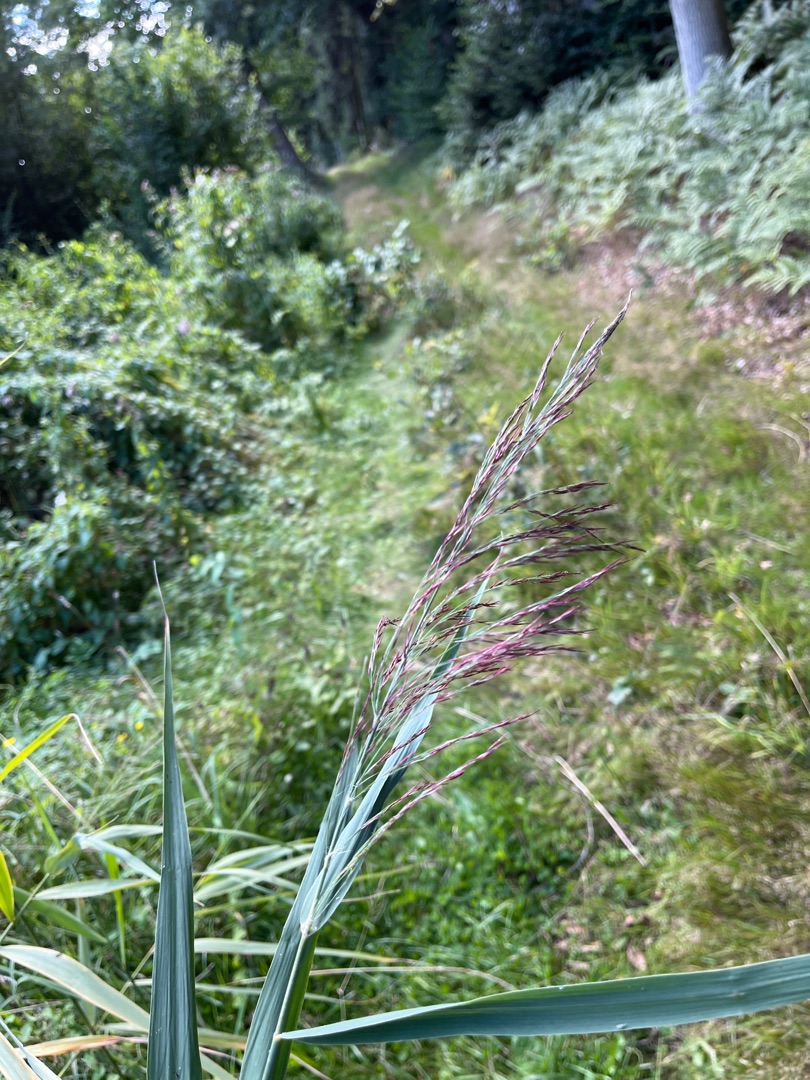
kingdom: Plantae
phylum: Tracheophyta
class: Liliopsida
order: Poales
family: Poaceae
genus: Phragmites
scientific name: Phragmites australis
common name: Tagrør
